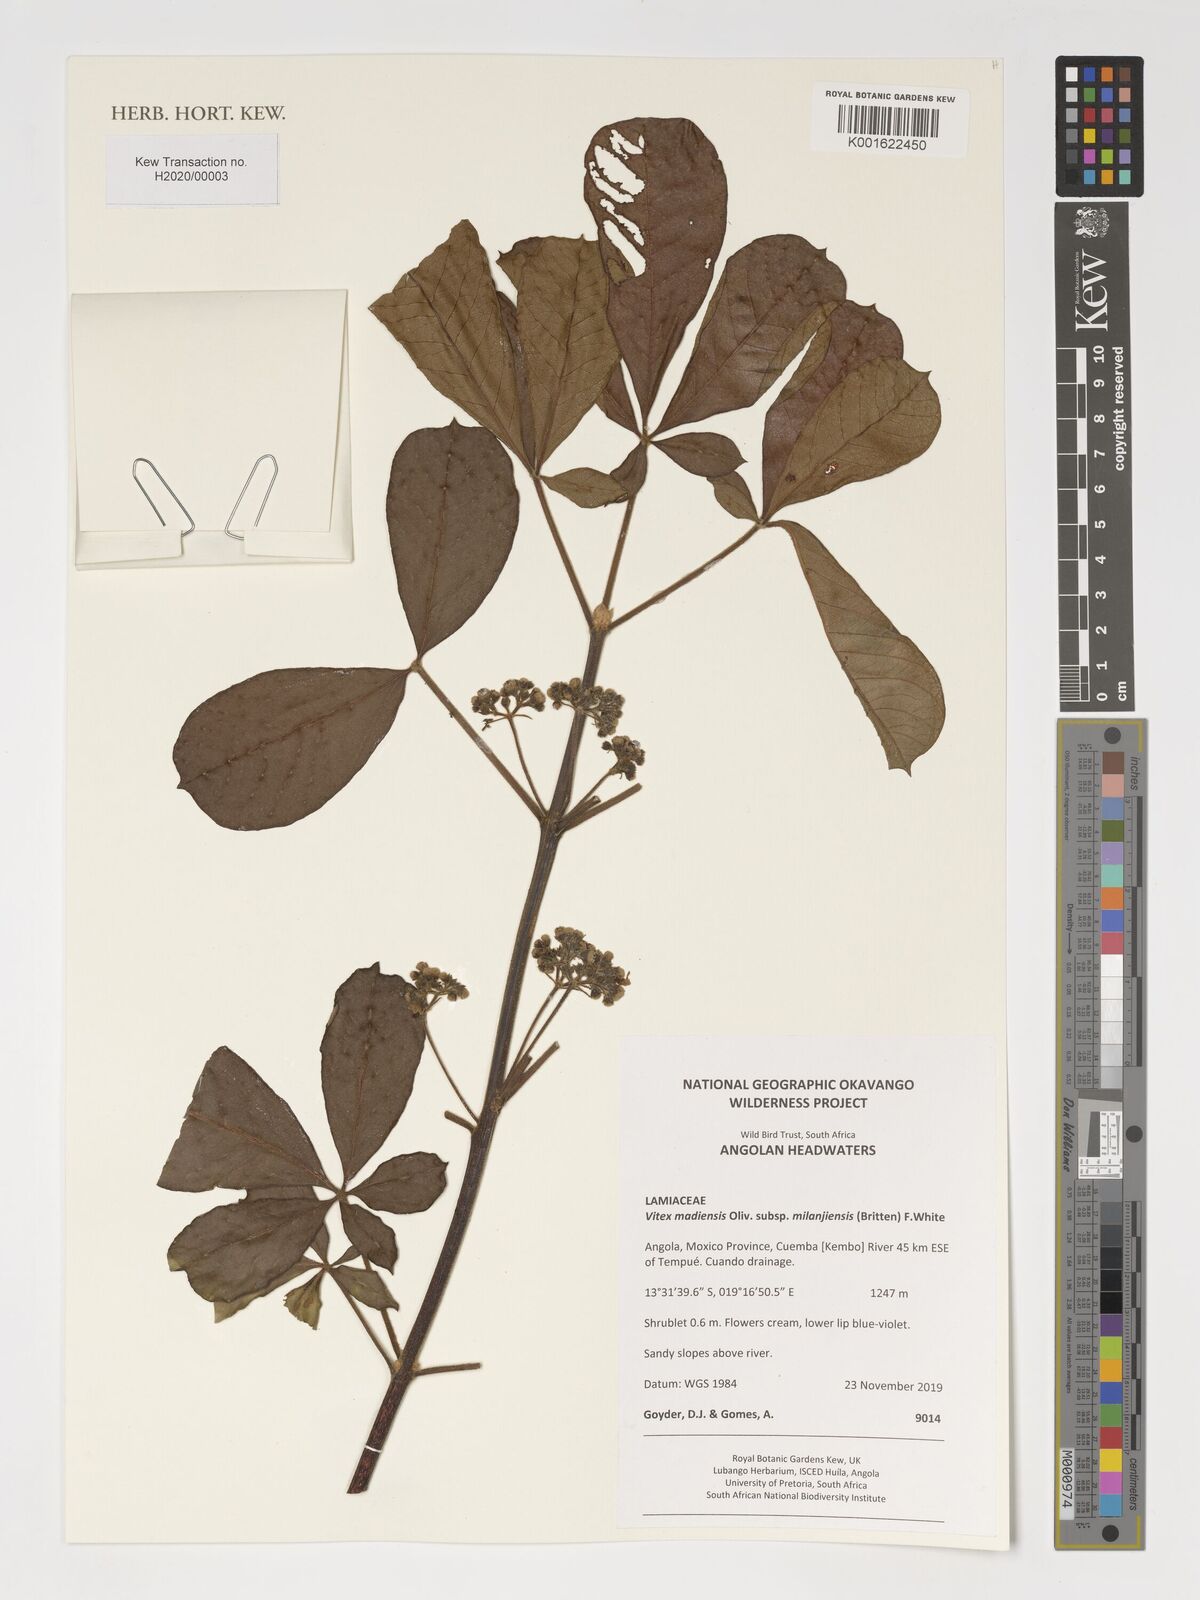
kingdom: Plantae
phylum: Tracheophyta
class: Magnoliopsida
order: Lamiales
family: Lamiaceae
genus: Vitex
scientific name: Vitex madiensis
